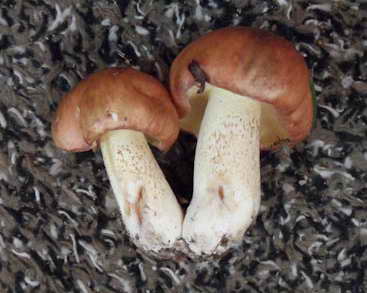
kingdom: Fungi
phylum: Basidiomycota
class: Agaricomycetes
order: Boletales
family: Suillaceae
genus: Suillus
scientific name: Suillus granulatus
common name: kornet slimrørhat
